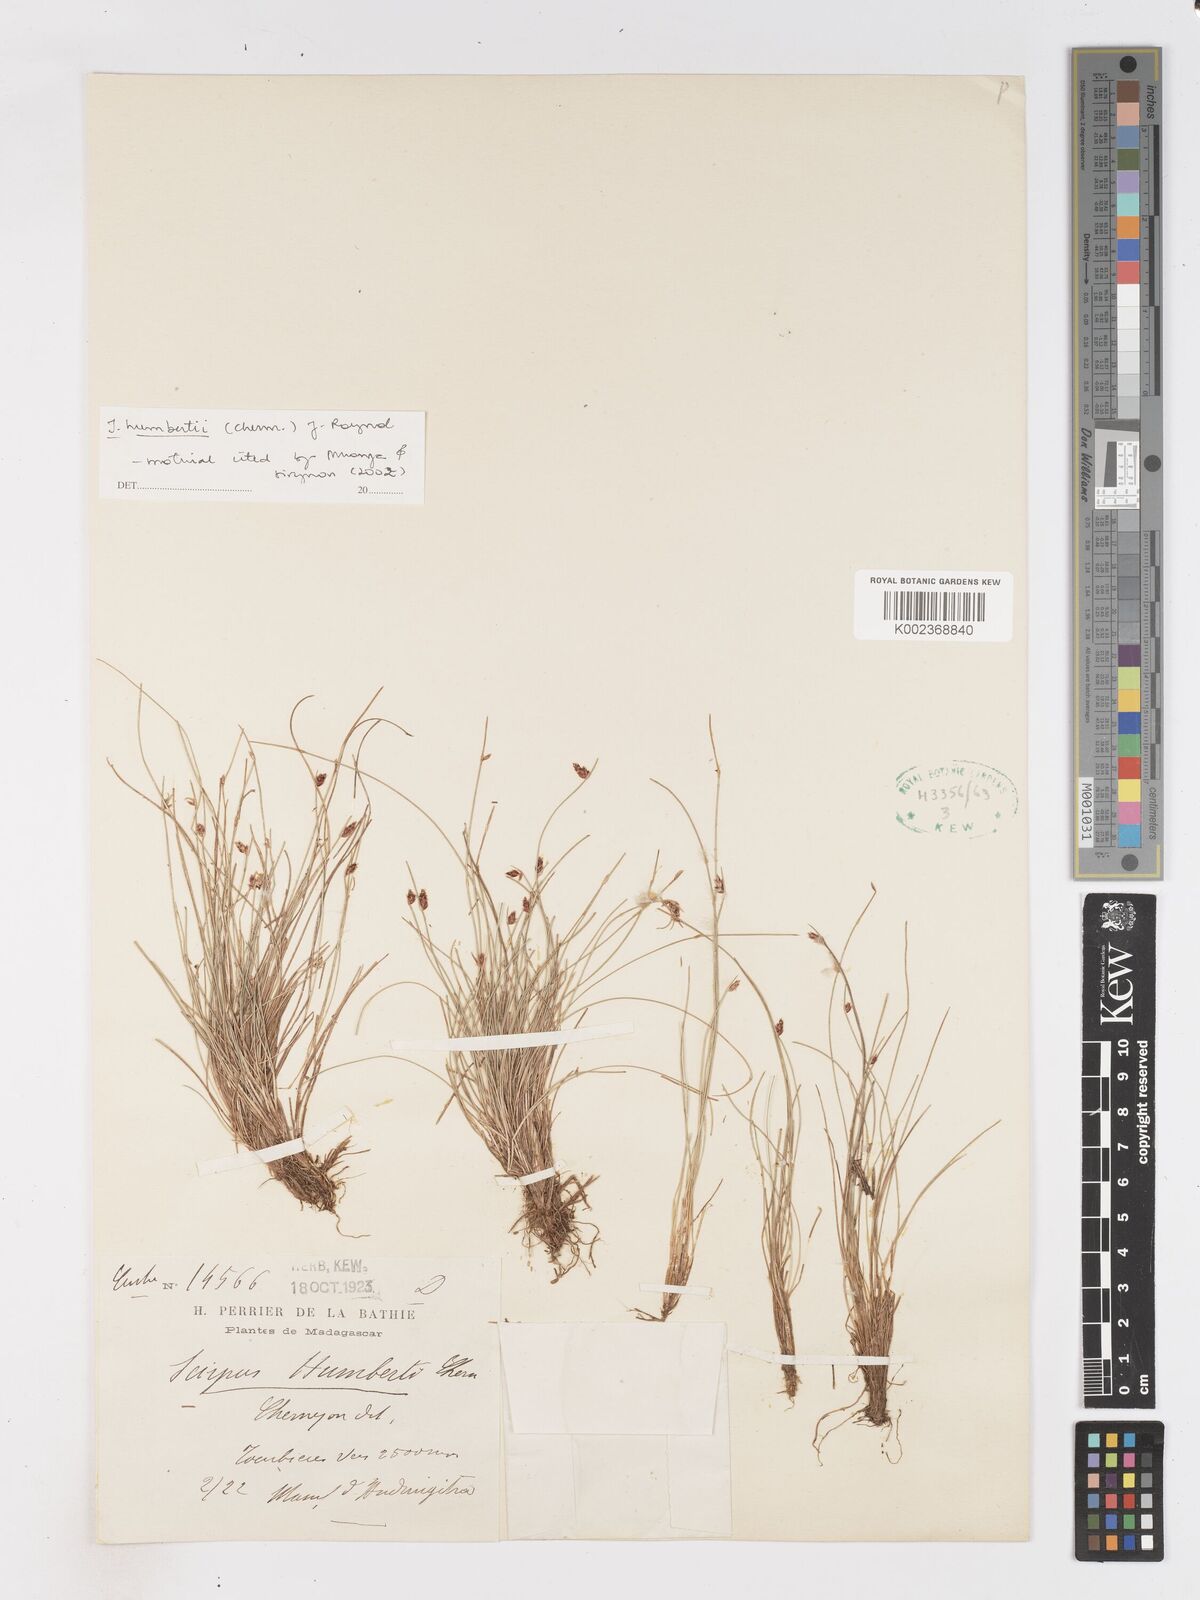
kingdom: Plantae
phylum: Tracheophyta
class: Liliopsida
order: Poales
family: Cyperaceae
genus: Isolepis
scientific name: Isolepis humbertii
